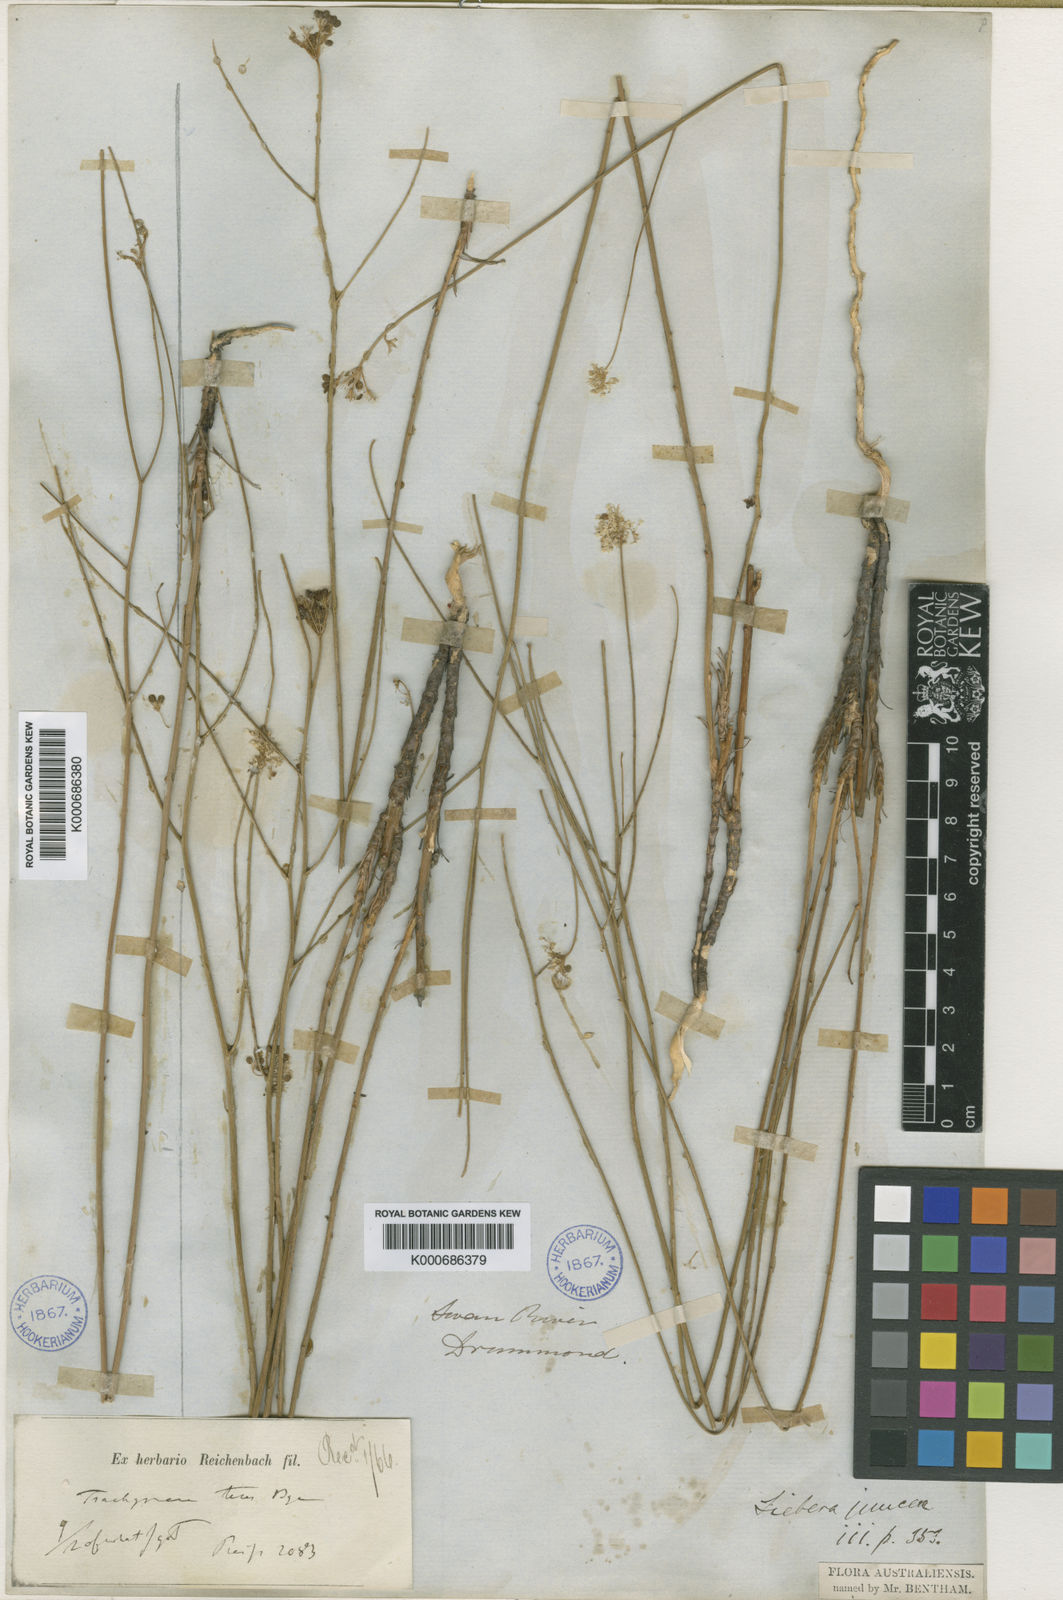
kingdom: Plantae
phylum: Tracheophyta
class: Magnoliopsida
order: Apiales
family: Apiaceae
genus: Platysace
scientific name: Platysace juncea
